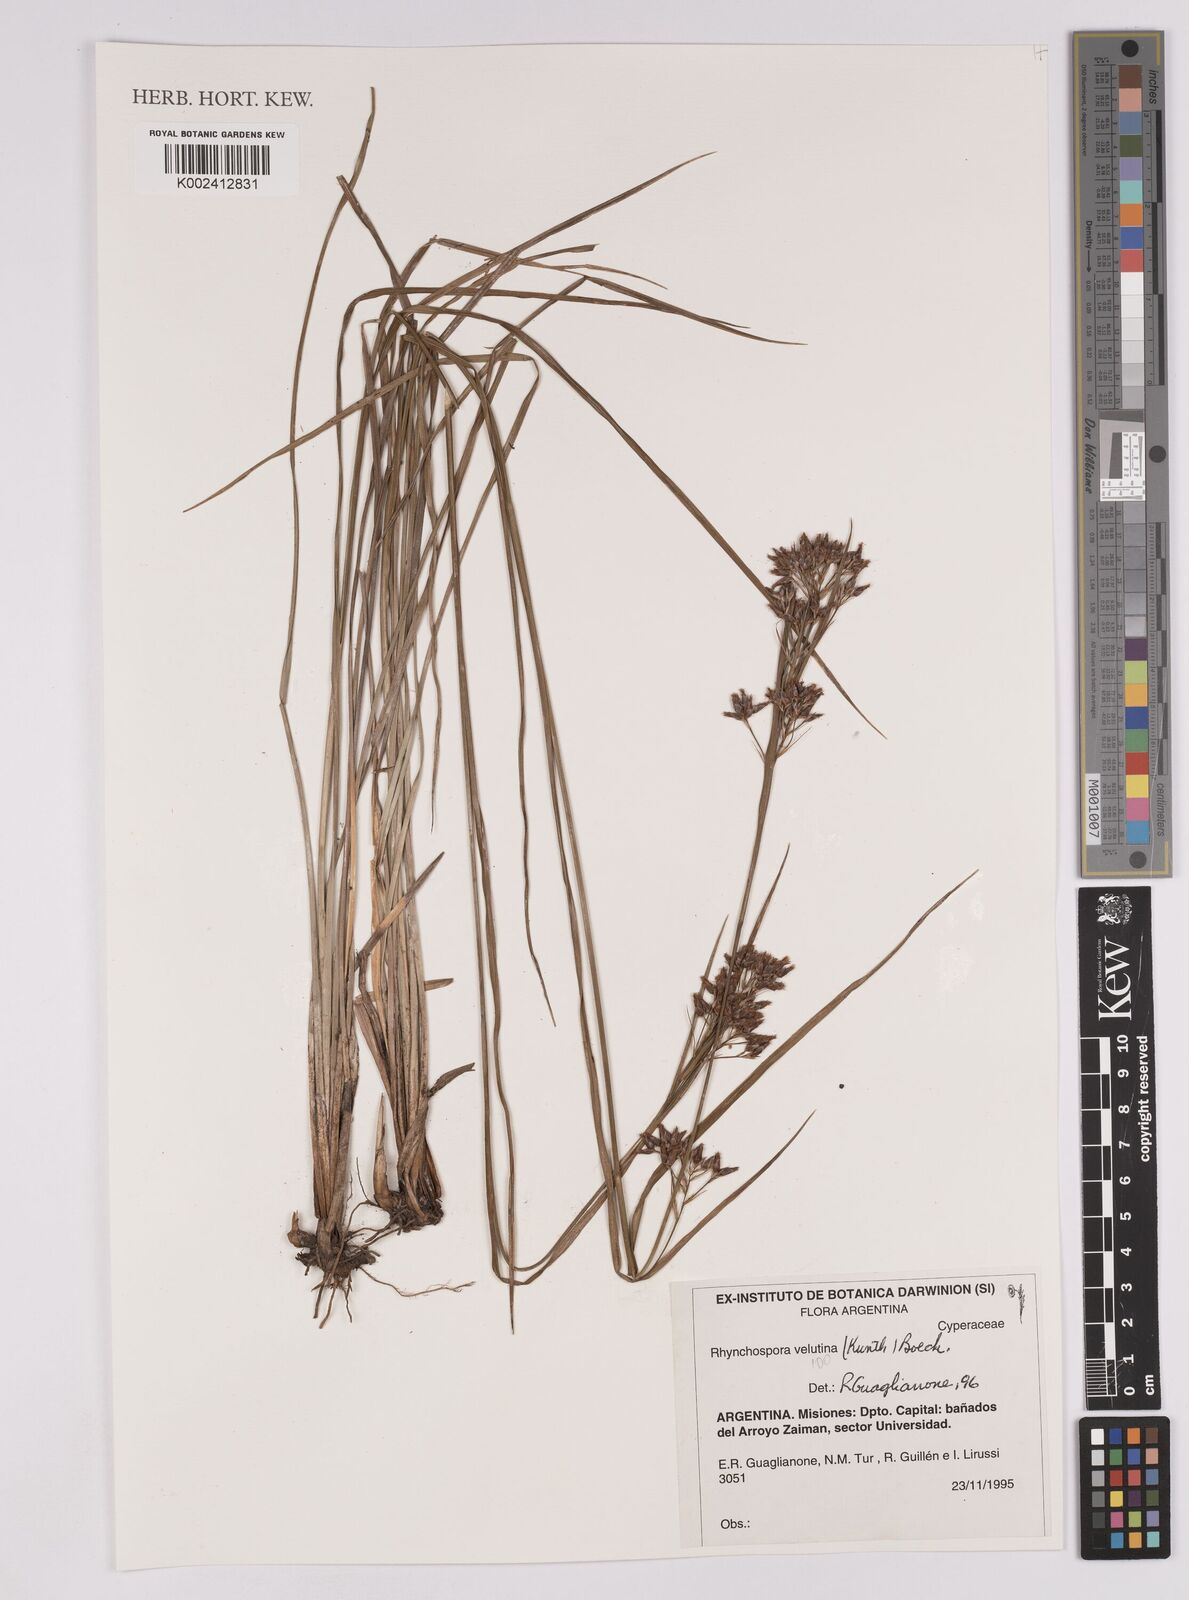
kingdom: Plantae
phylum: Tracheophyta
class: Liliopsida
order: Poales
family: Cyperaceae
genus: Rhynchospora
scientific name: Rhynchospora robusta
